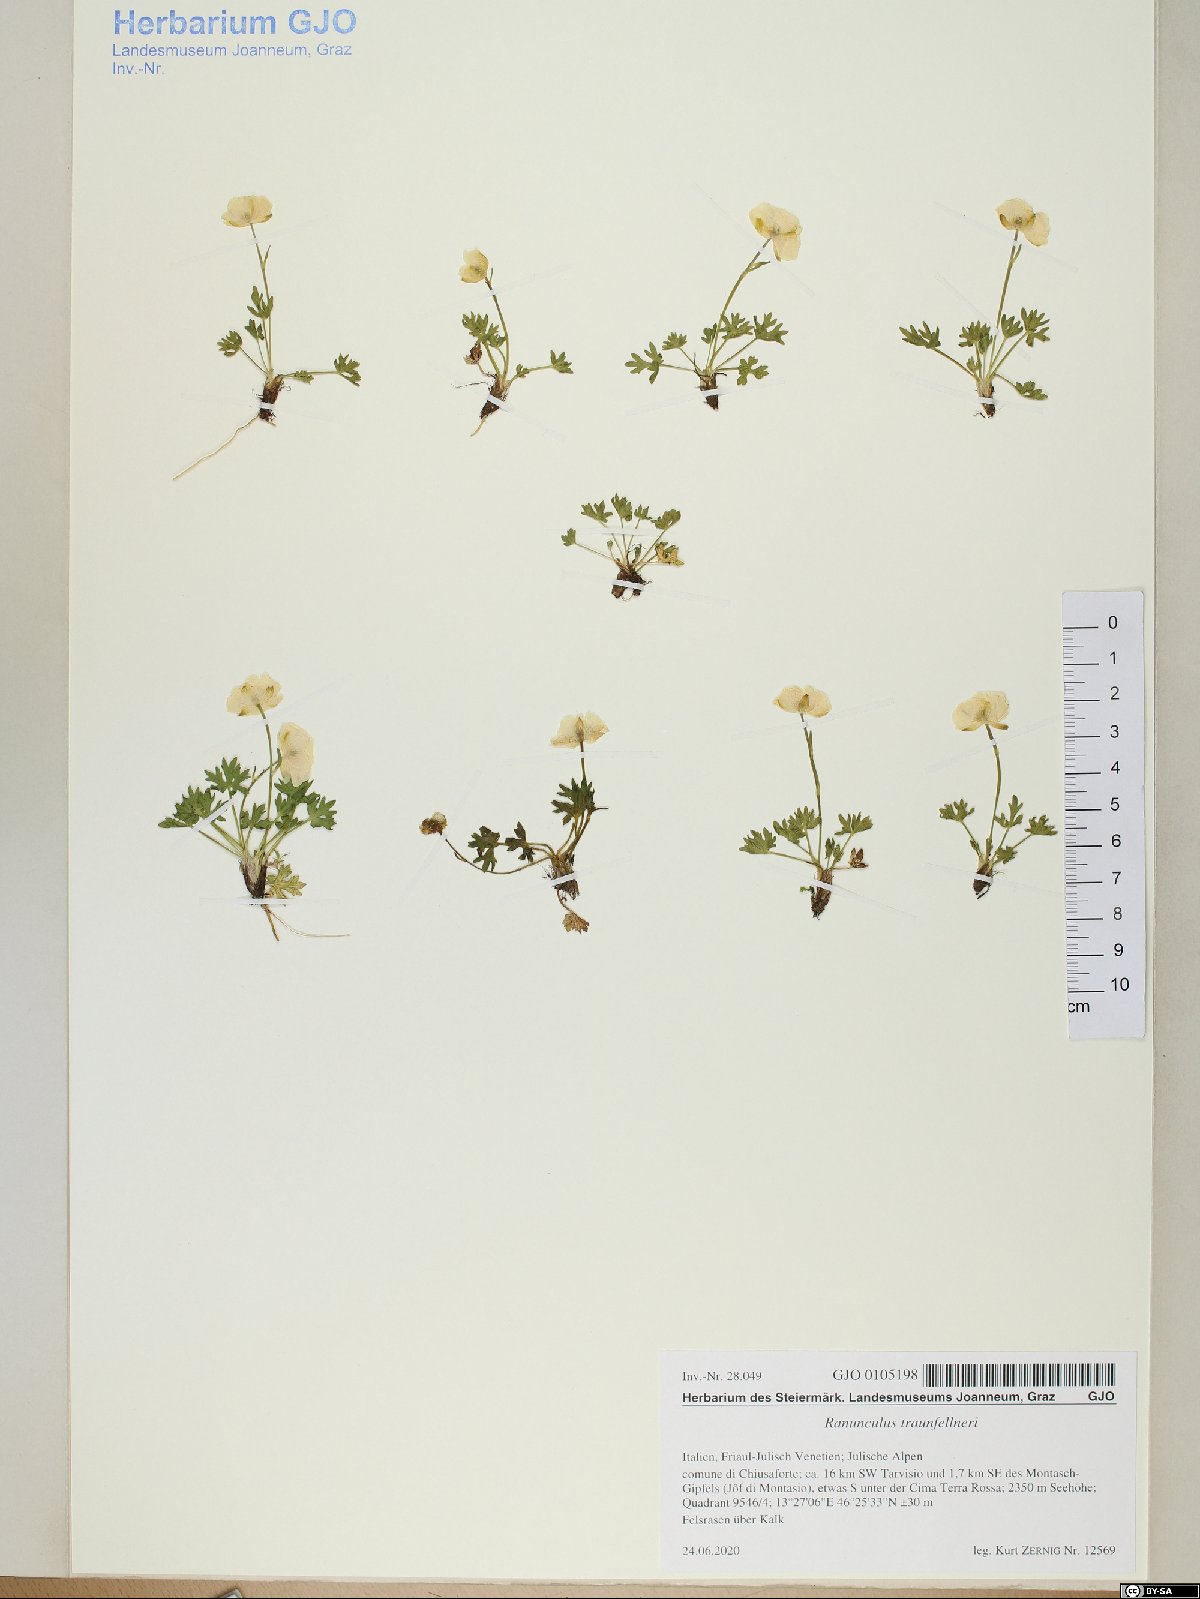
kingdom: Plantae
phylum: Tracheophyta
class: Magnoliopsida
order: Ranunculales
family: Ranunculaceae
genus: Ranunculus
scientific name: Ranunculus traunfellneri
